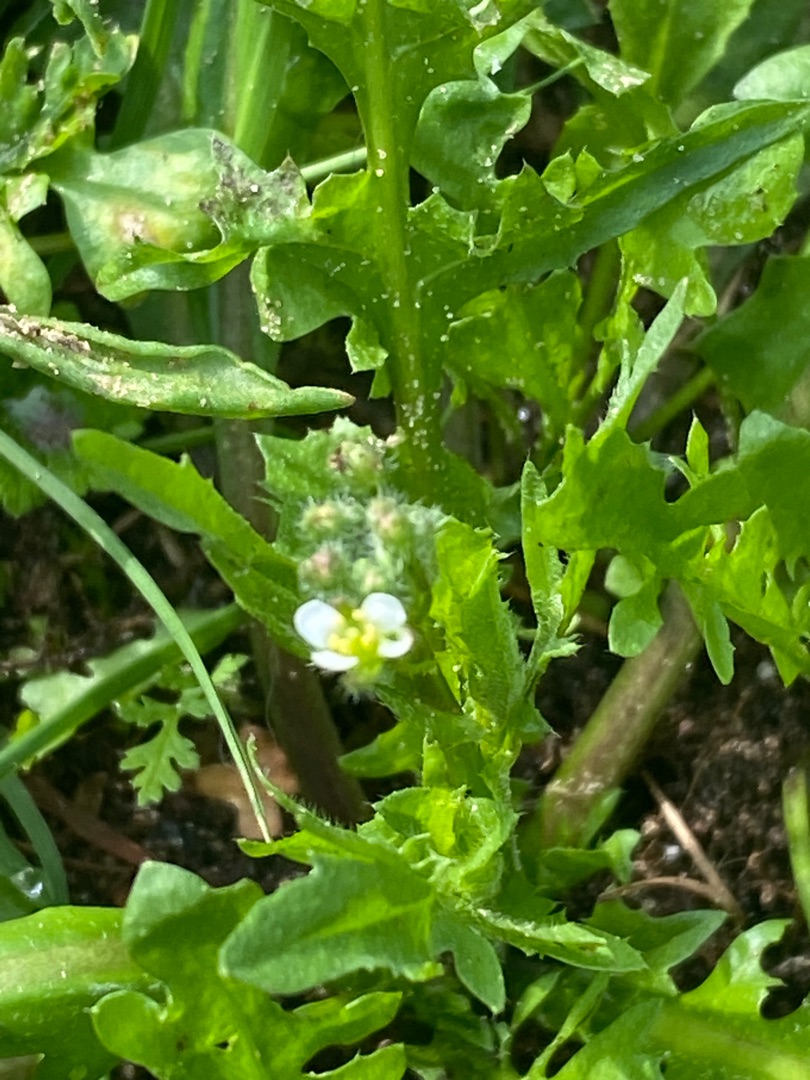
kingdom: Plantae
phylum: Tracheophyta
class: Magnoliopsida
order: Brassicales
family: Brassicaceae
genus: Capsella
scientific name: Capsella bursa-pastoris
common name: Hyrdetaske
